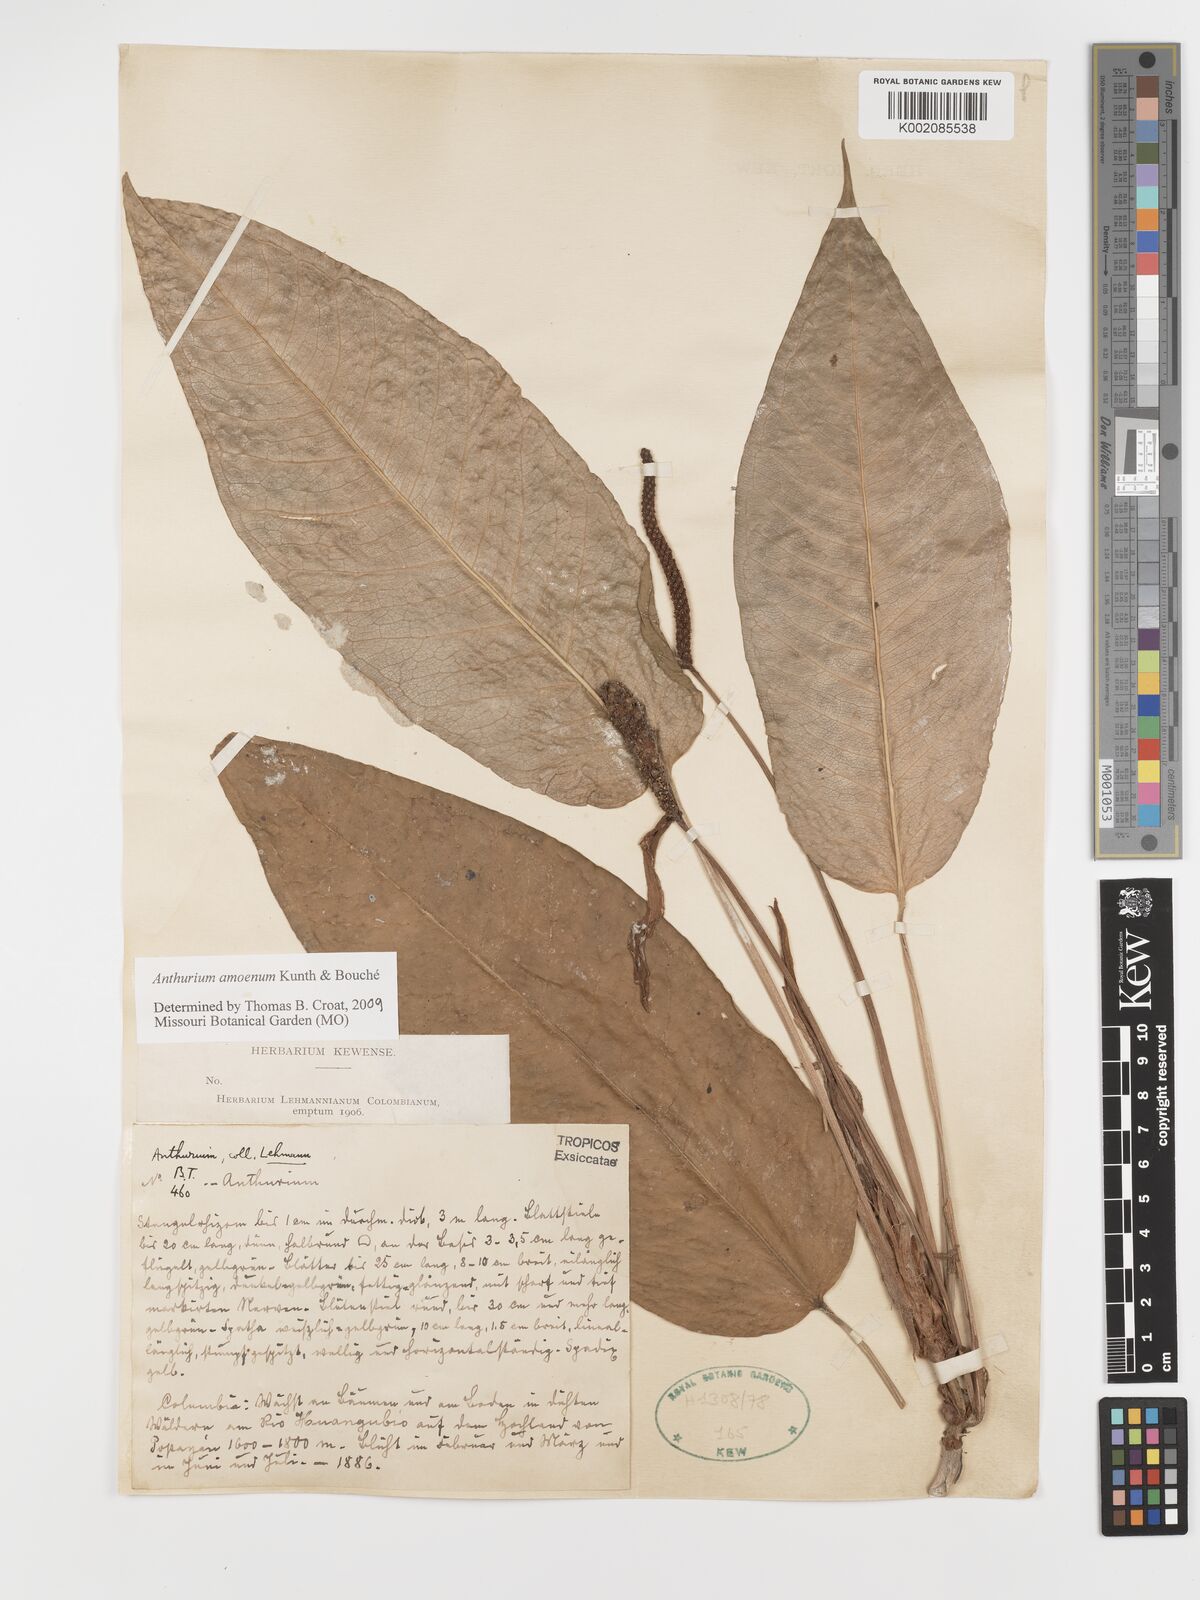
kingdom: Plantae
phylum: Tracheophyta
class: Liliopsida
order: Alismatales
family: Araceae
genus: Anthurium
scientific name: Anthurium amoenum
